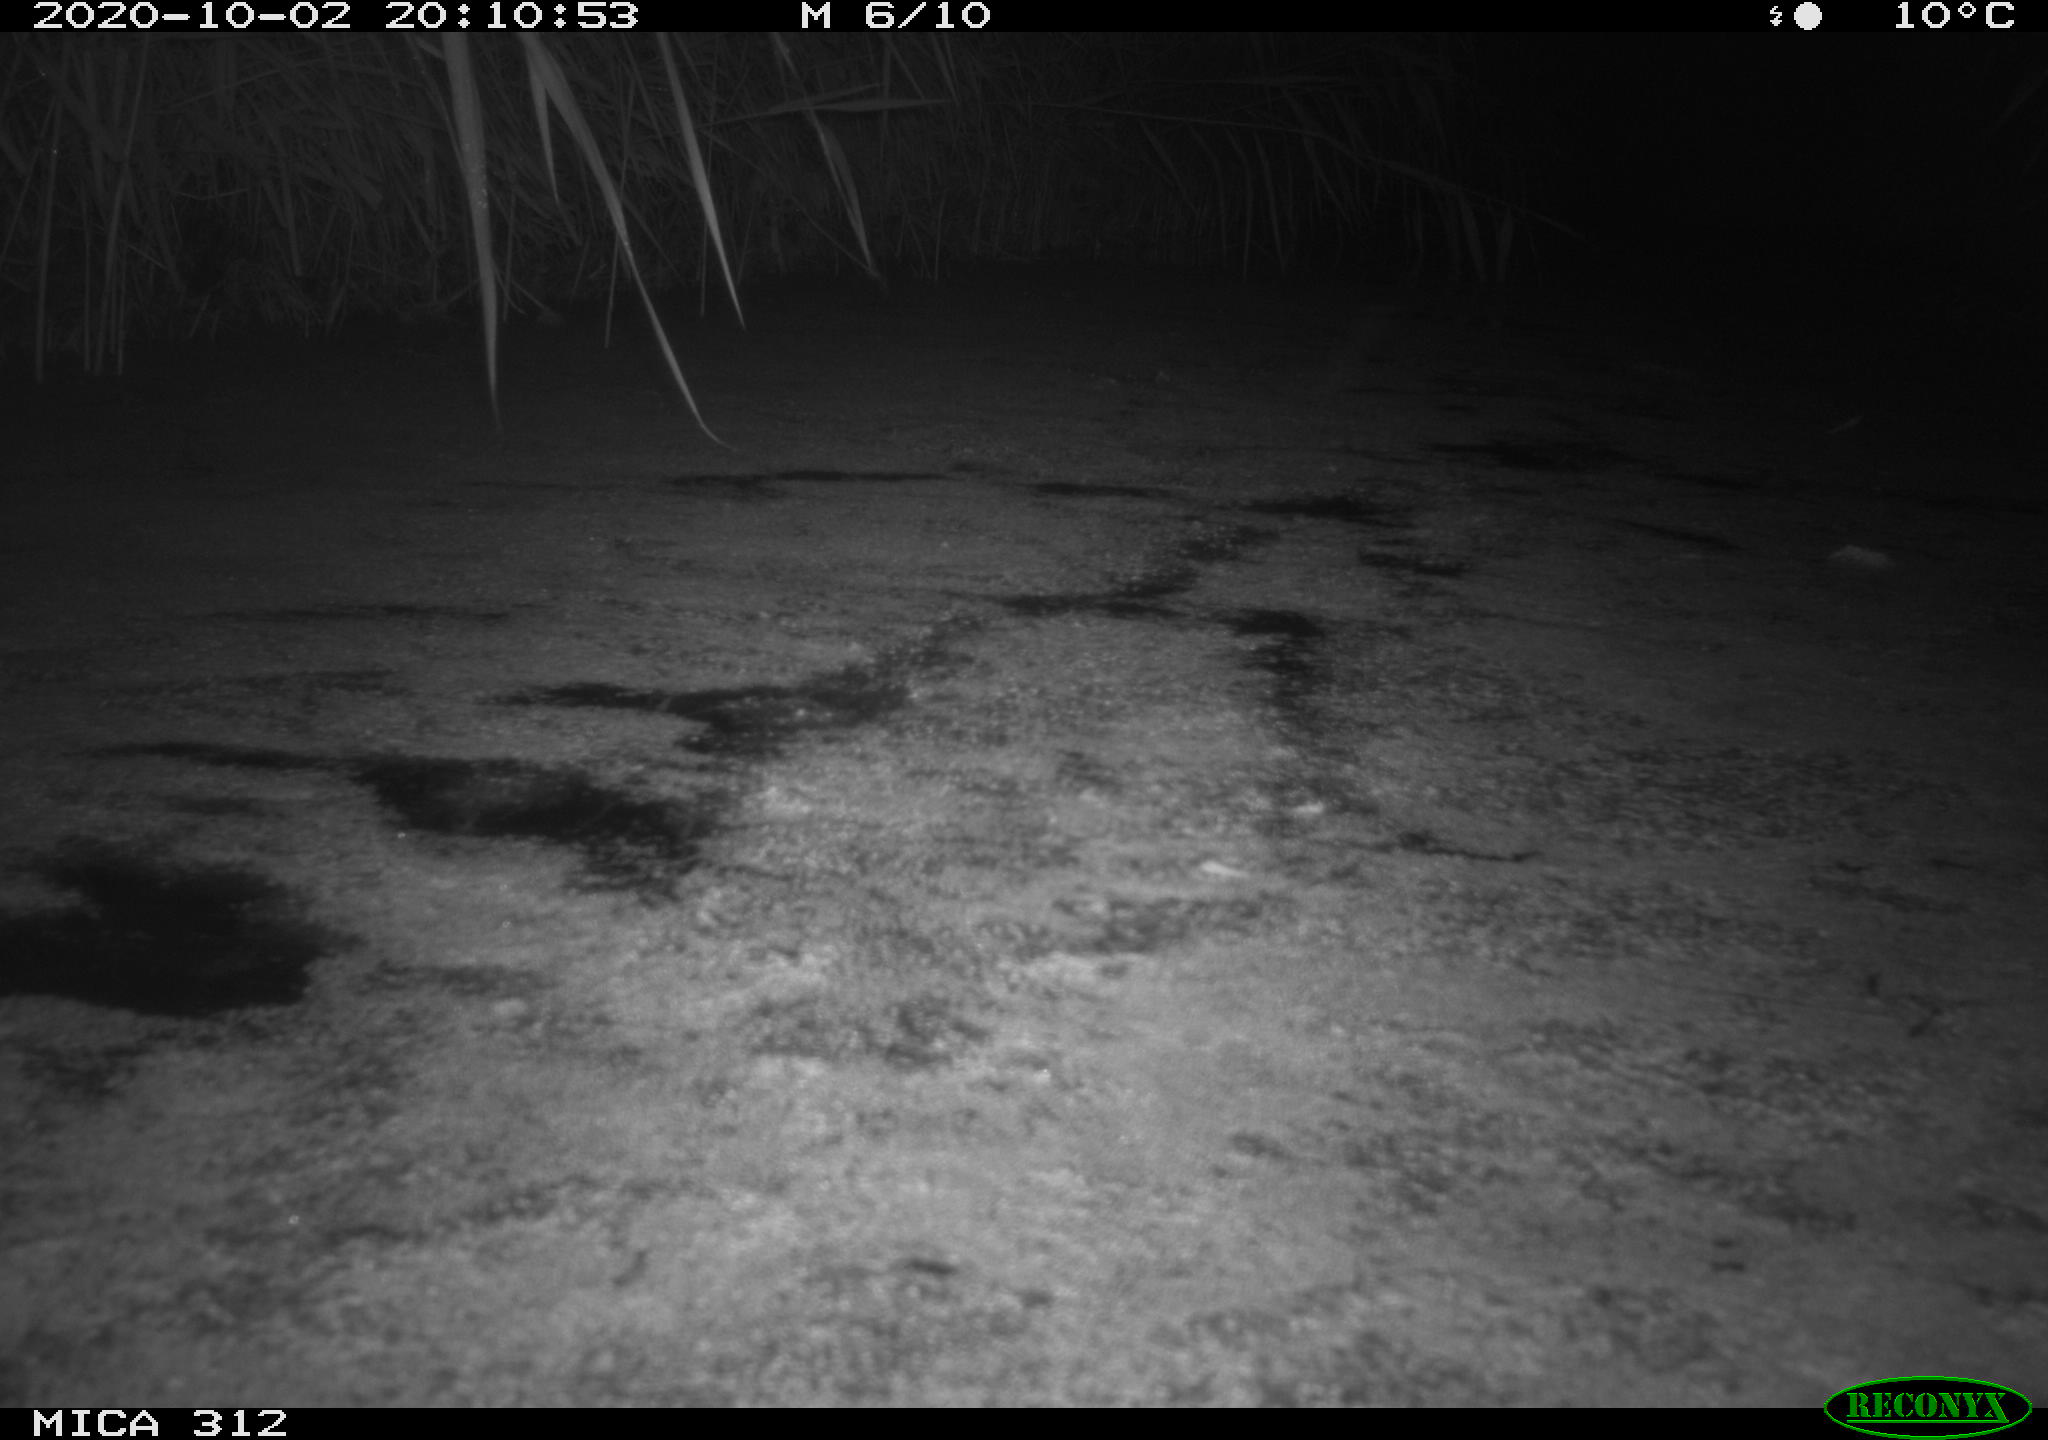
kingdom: Animalia
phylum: Chordata
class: Aves
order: Gruiformes
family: Rallidae
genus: Gallinula
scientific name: Gallinula chloropus
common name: Common moorhen
